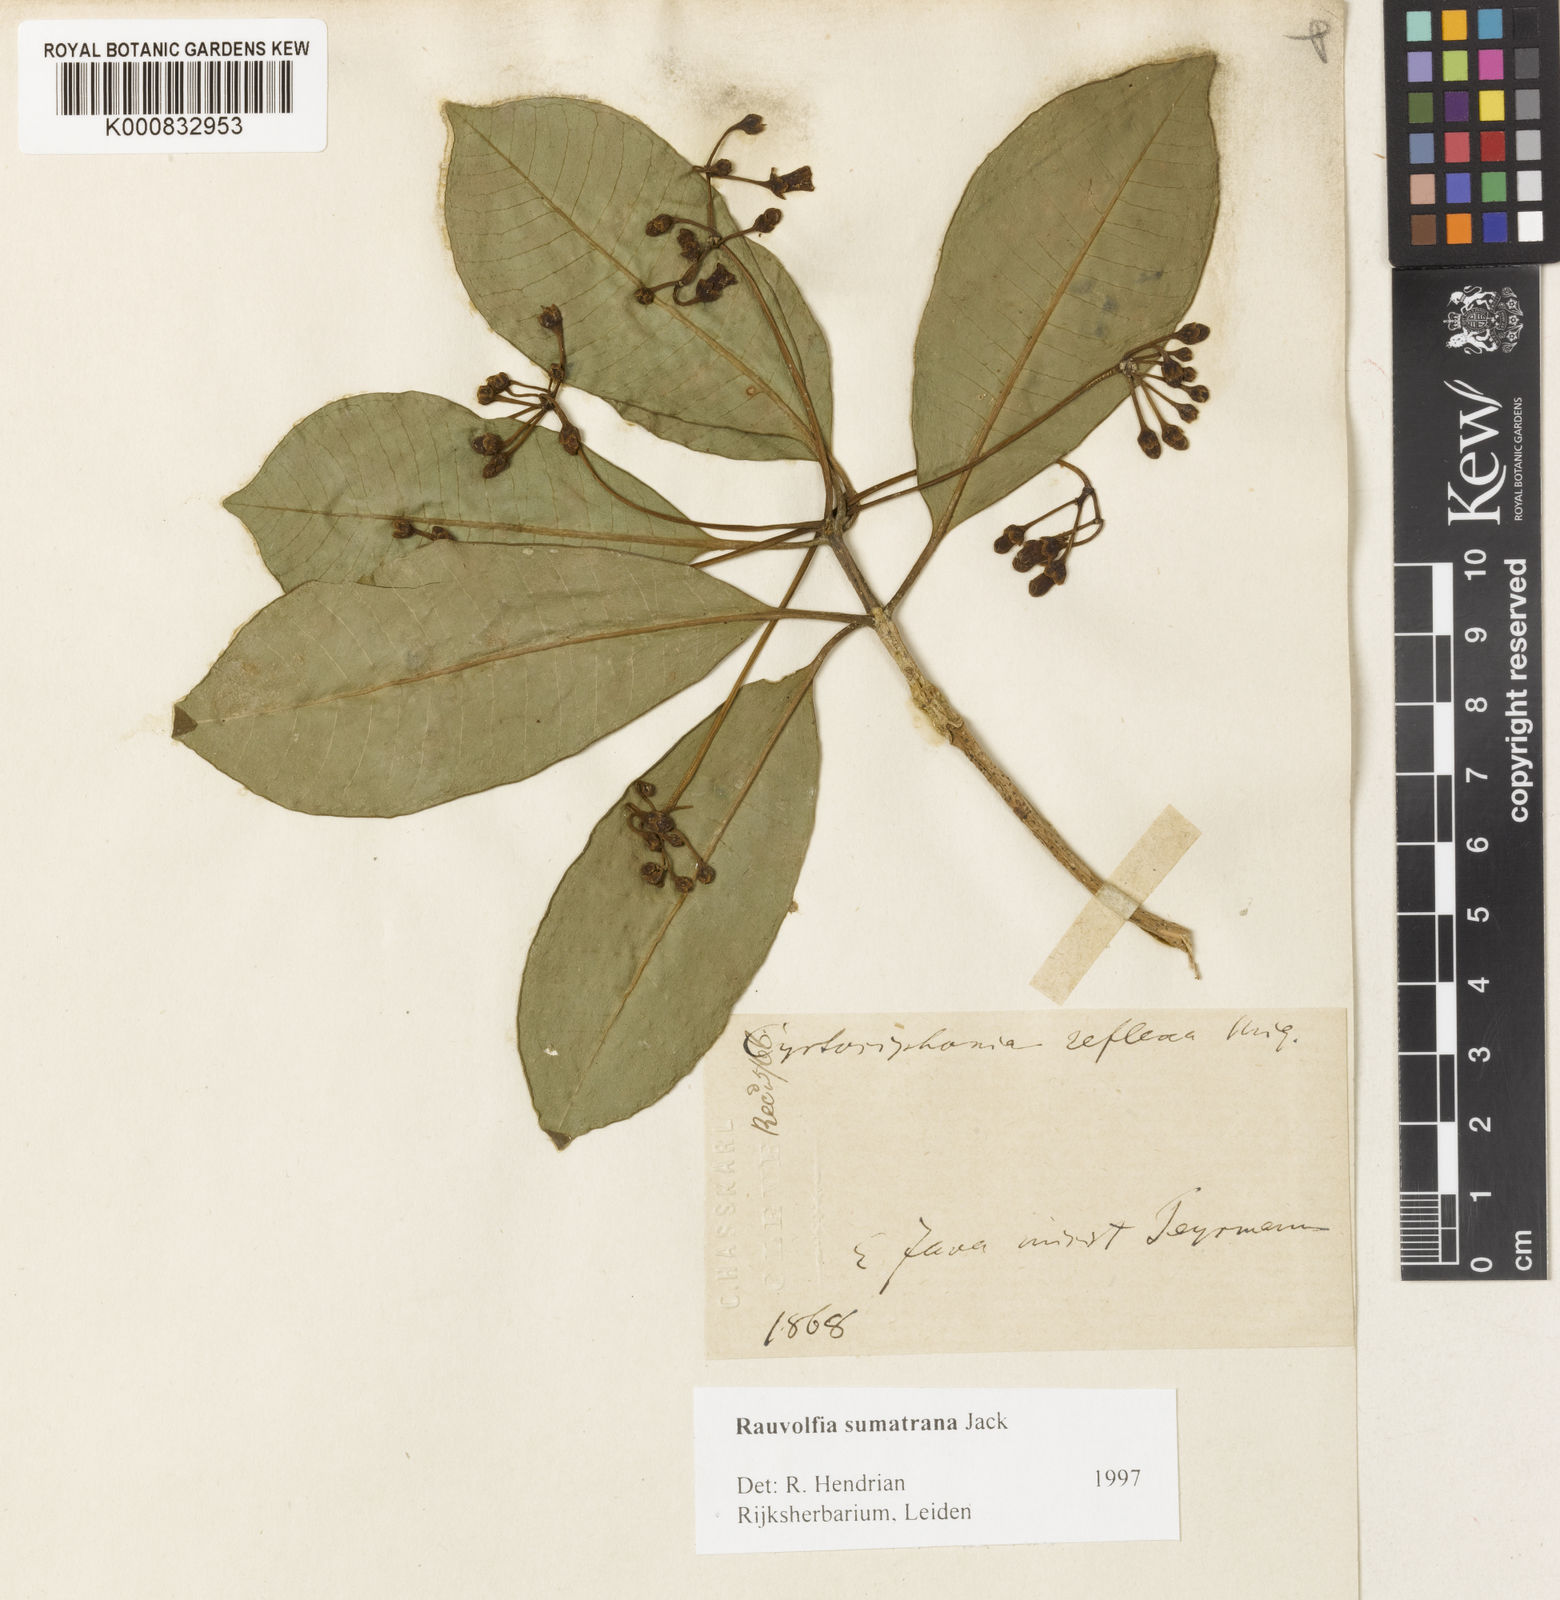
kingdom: Plantae
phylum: Tracheophyta
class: Magnoliopsida
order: Gentianales
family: Apocynaceae
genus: Rauvolfia
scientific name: Rauvolfia sumatrana
